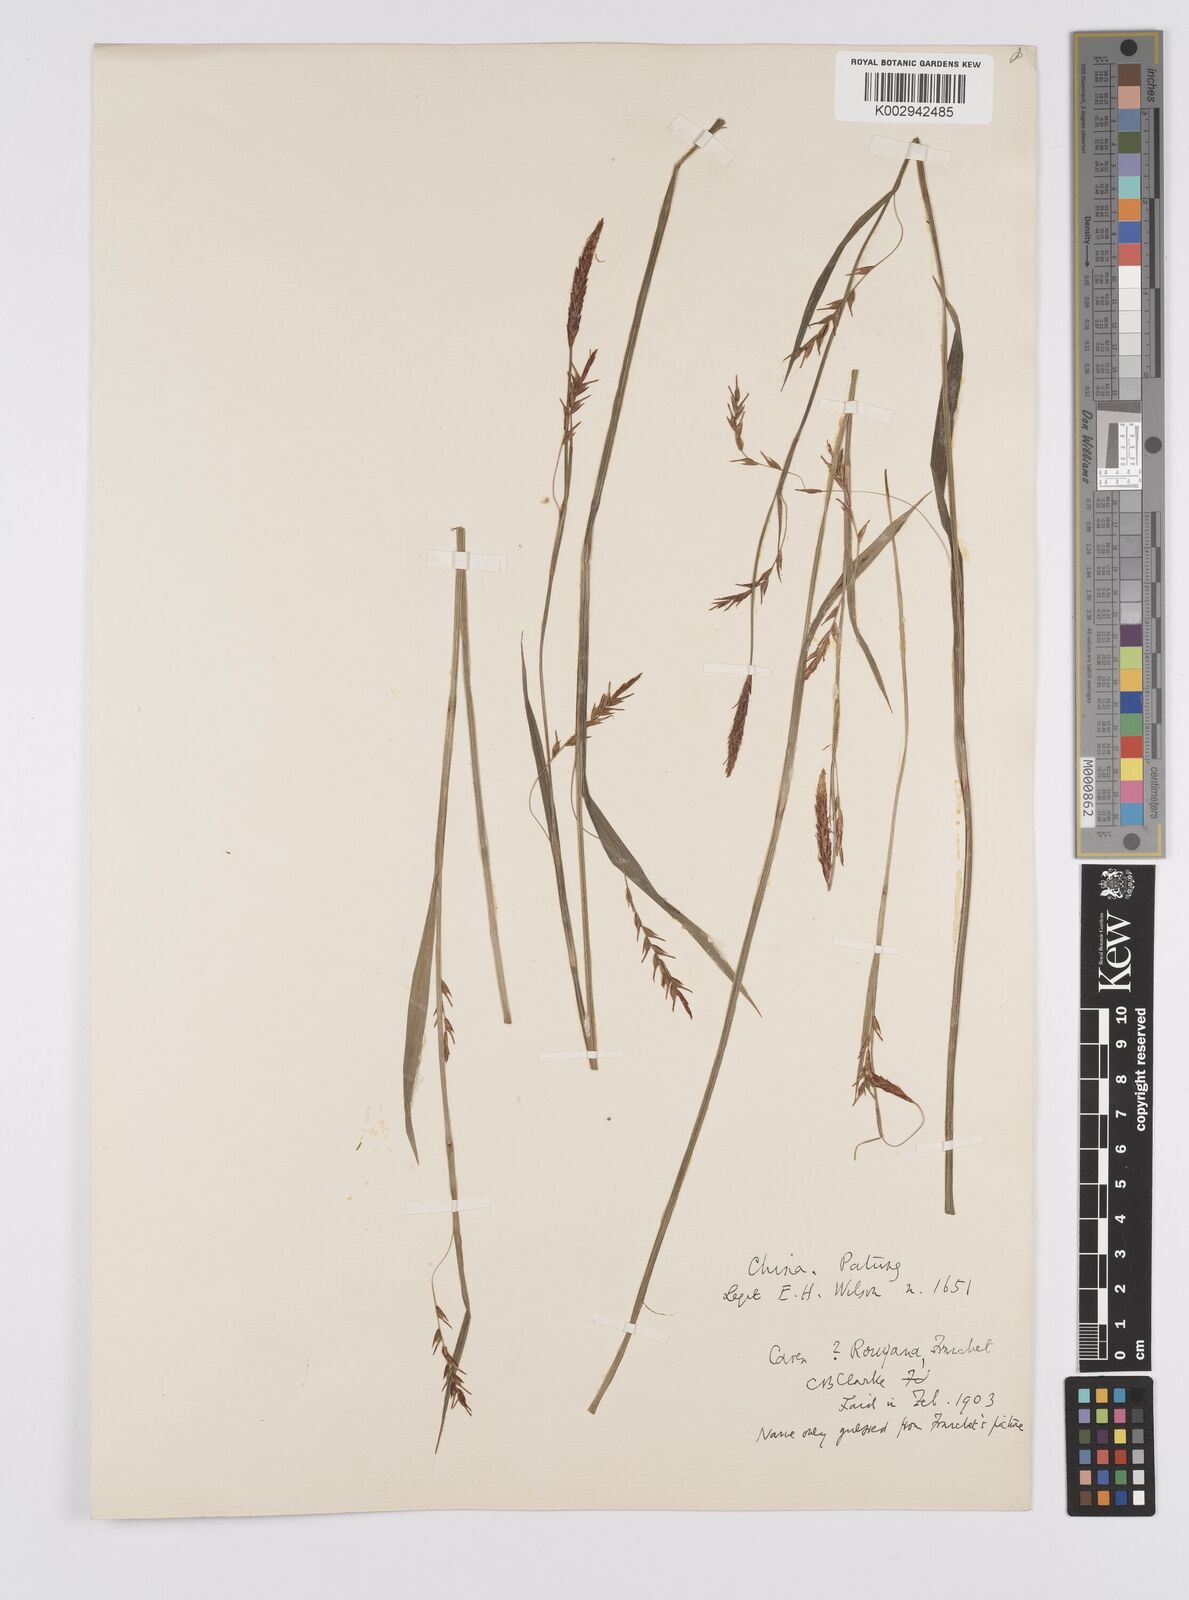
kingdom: Plantae
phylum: Tracheophyta
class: Liliopsida
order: Poales
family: Cyperaceae
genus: Carex
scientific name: Carex filipes
